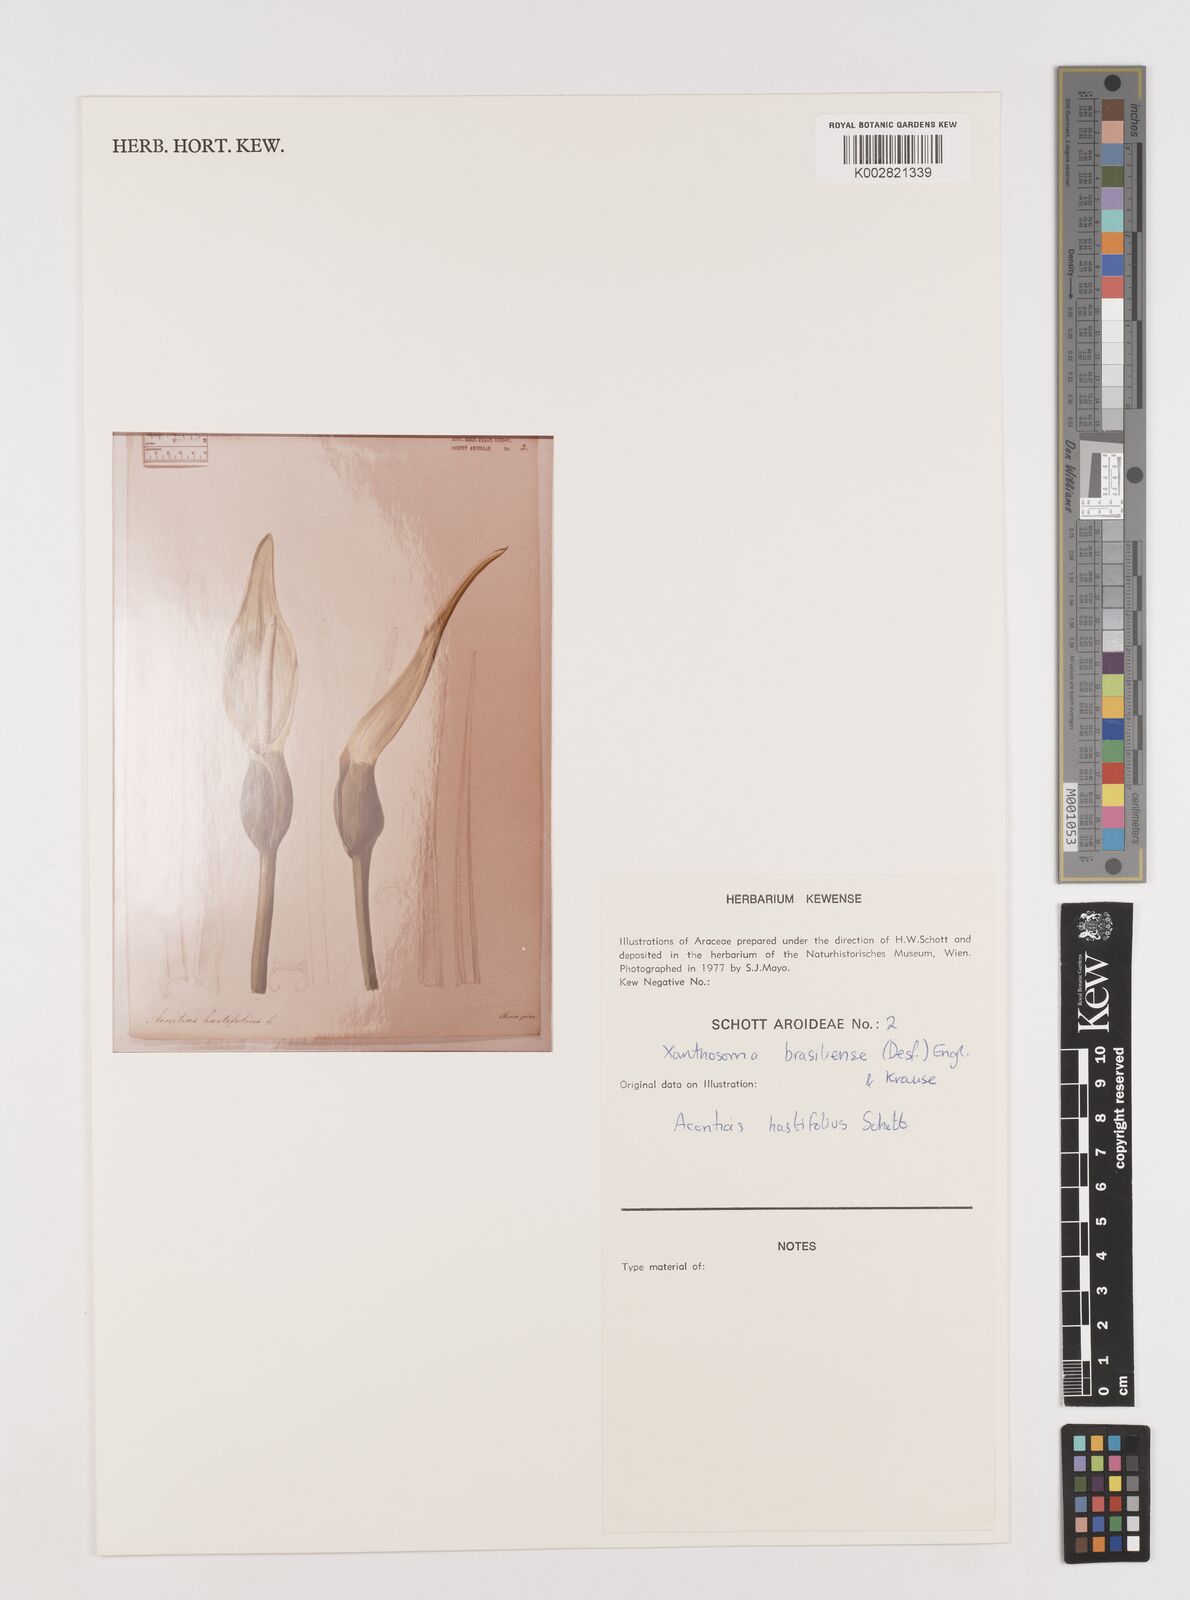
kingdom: Plantae
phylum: Tracheophyta
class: Liliopsida
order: Alismatales
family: Araceae
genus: Xanthosoma
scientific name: Xanthosoma brasiliense
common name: Tahitian-spinach
